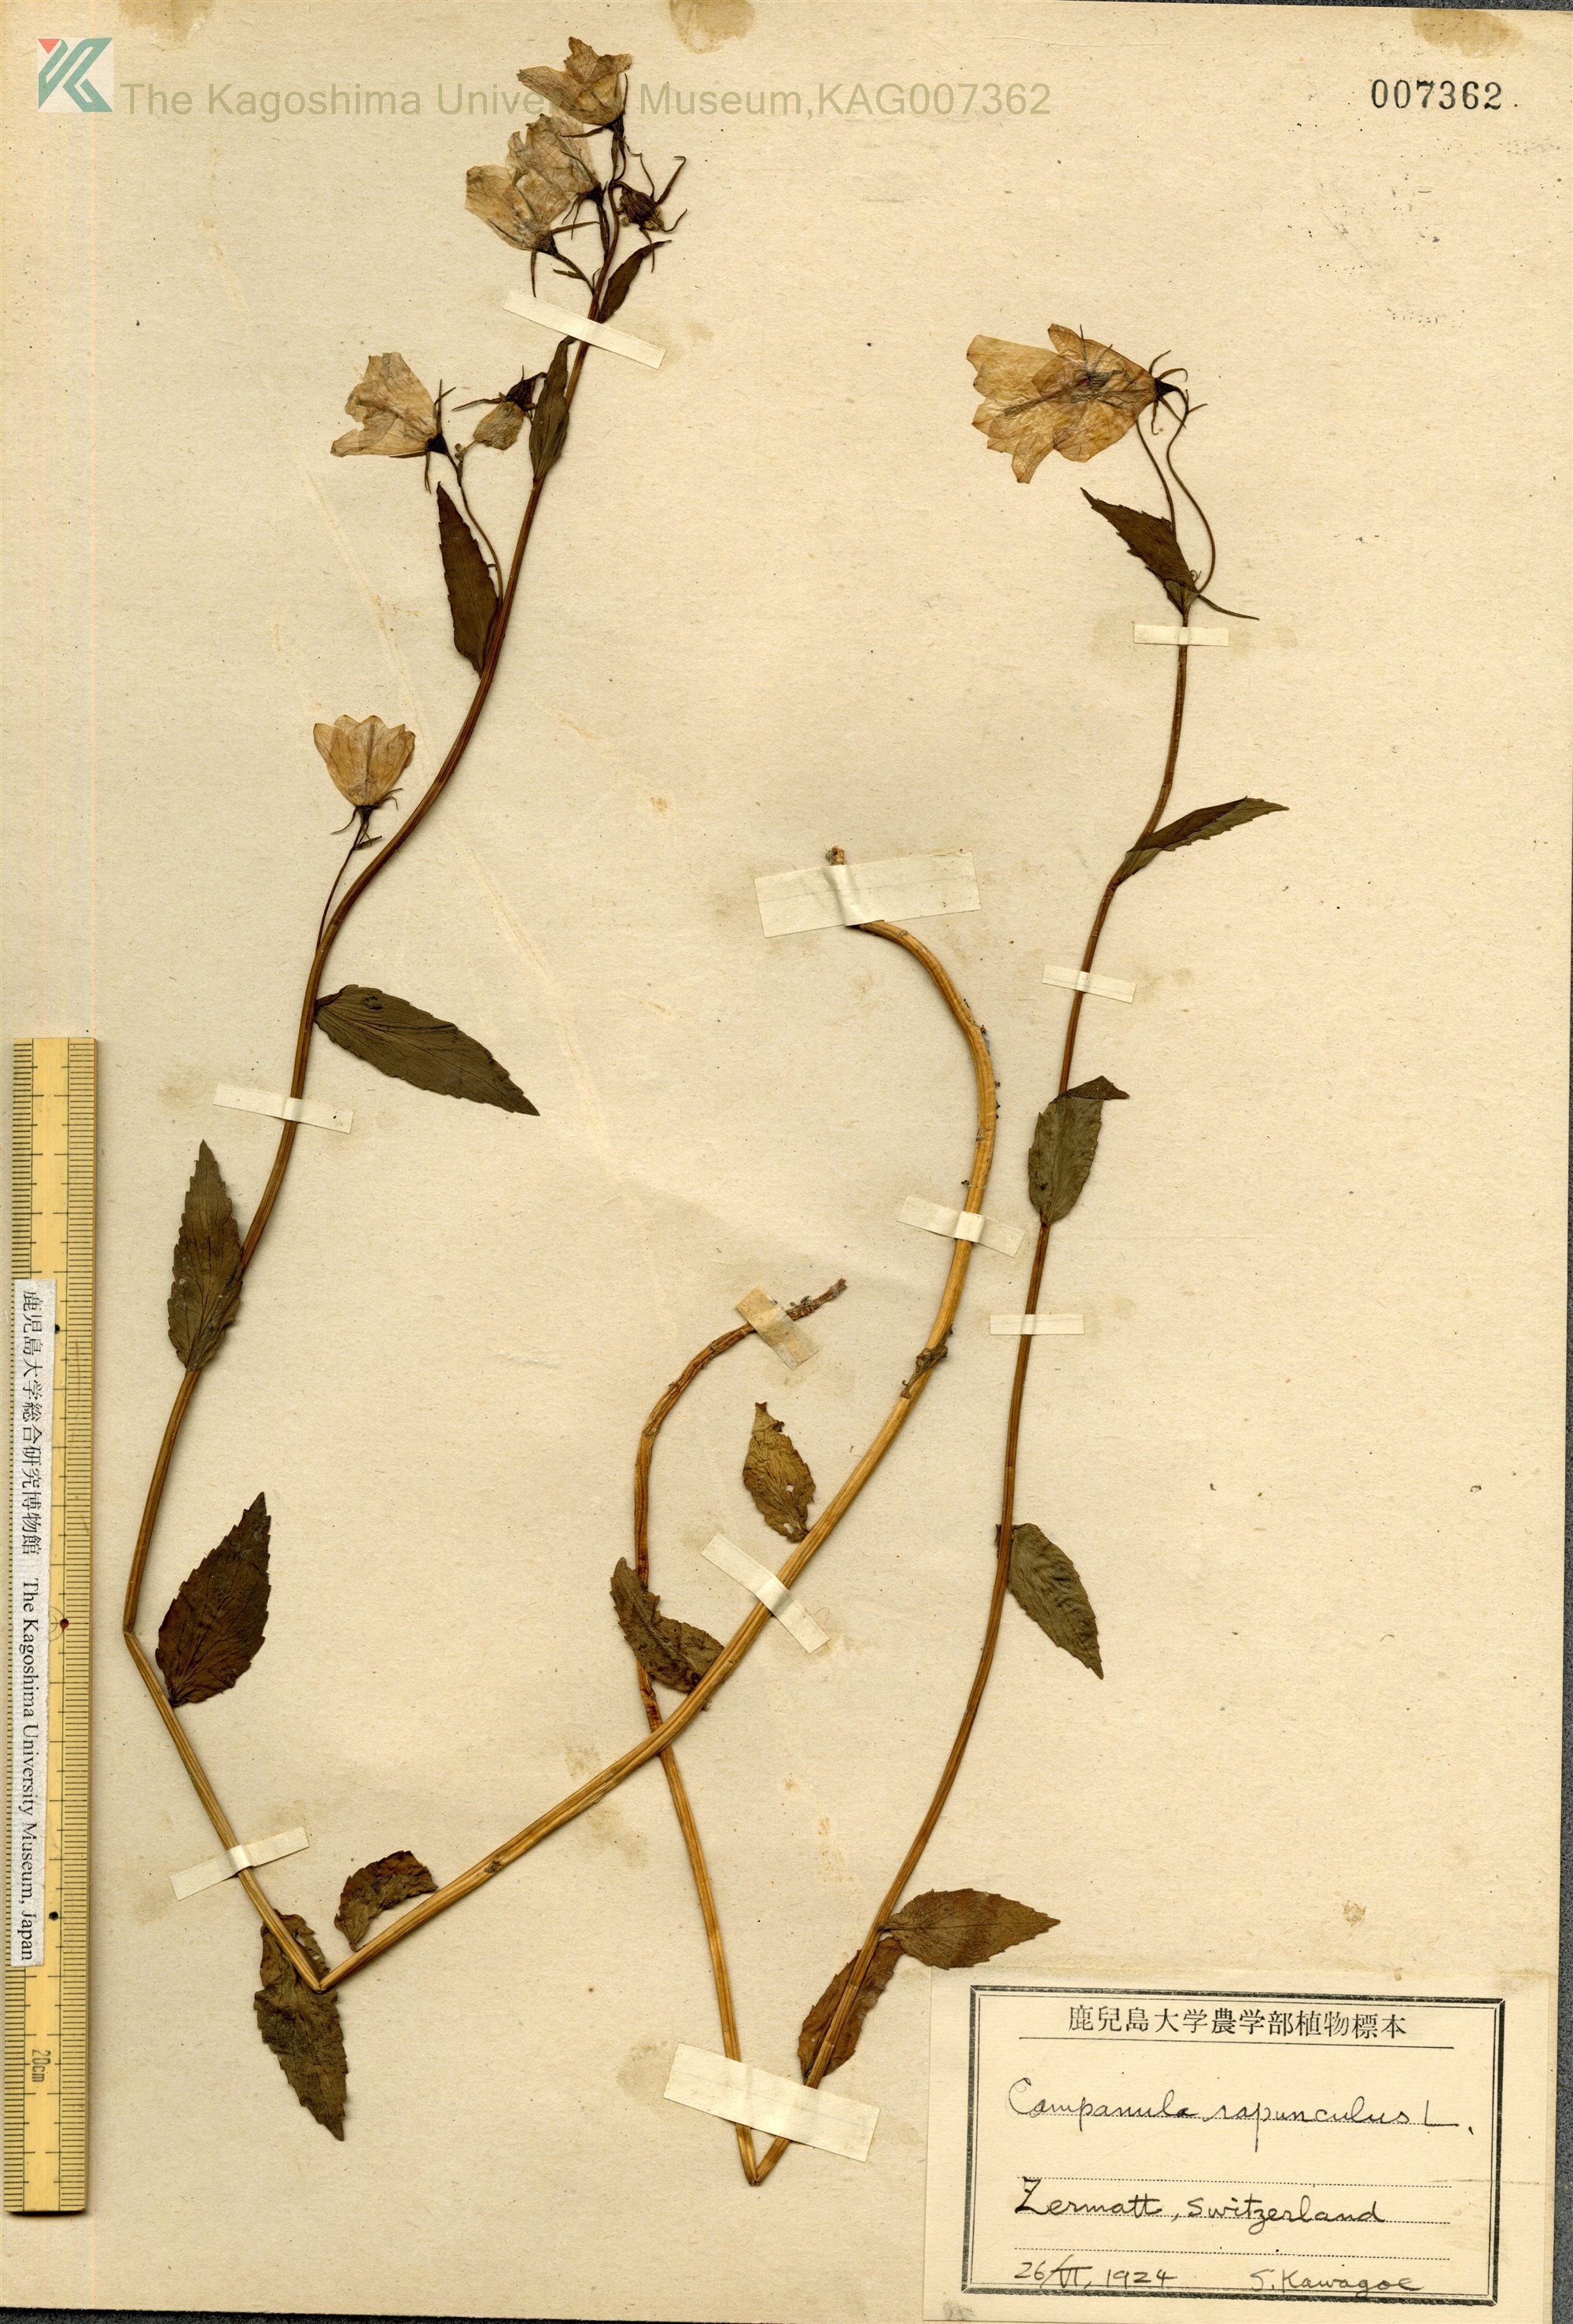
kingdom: Plantae
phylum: Tracheophyta
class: Magnoliopsida
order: Asterales
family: Campanulaceae
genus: Campanula
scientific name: Campanula rapunculus
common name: Rampion bellflower
